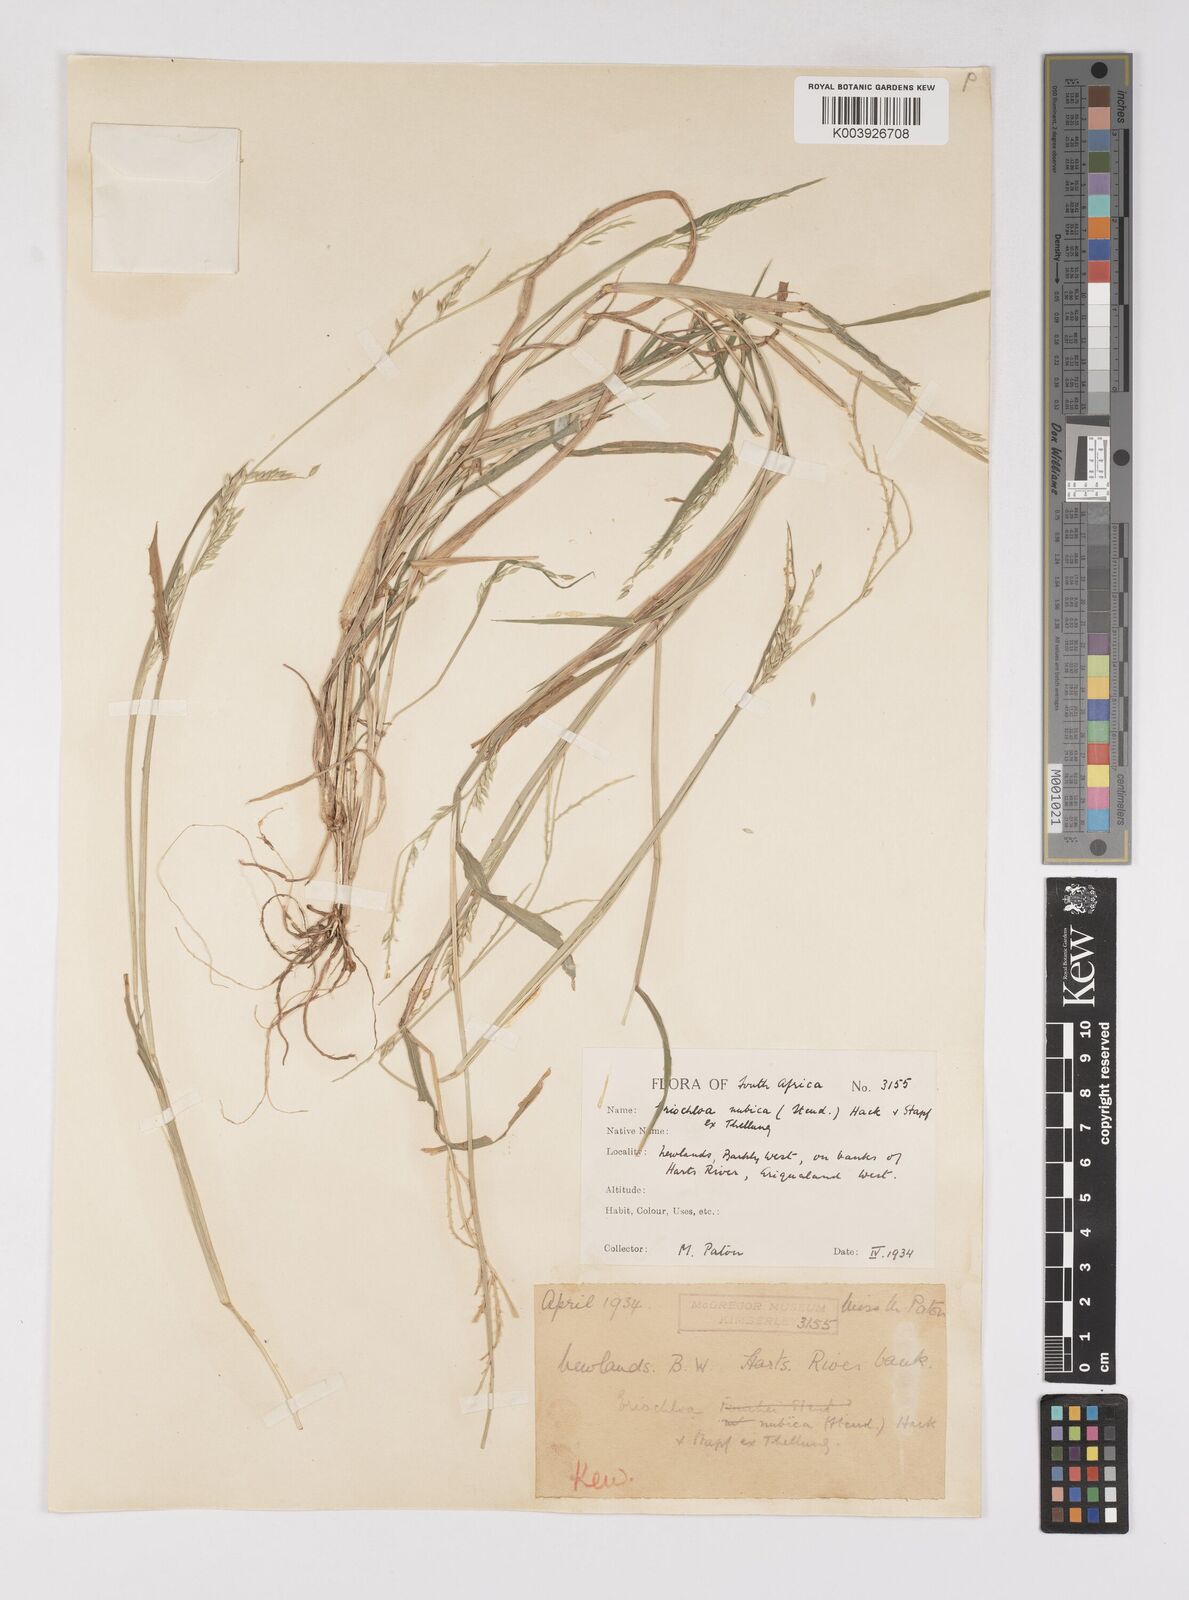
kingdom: Plantae
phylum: Tracheophyta
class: Liliopsida
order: Poales
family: Poaceae
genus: Eriochloa
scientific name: Eriochloa barbatus
